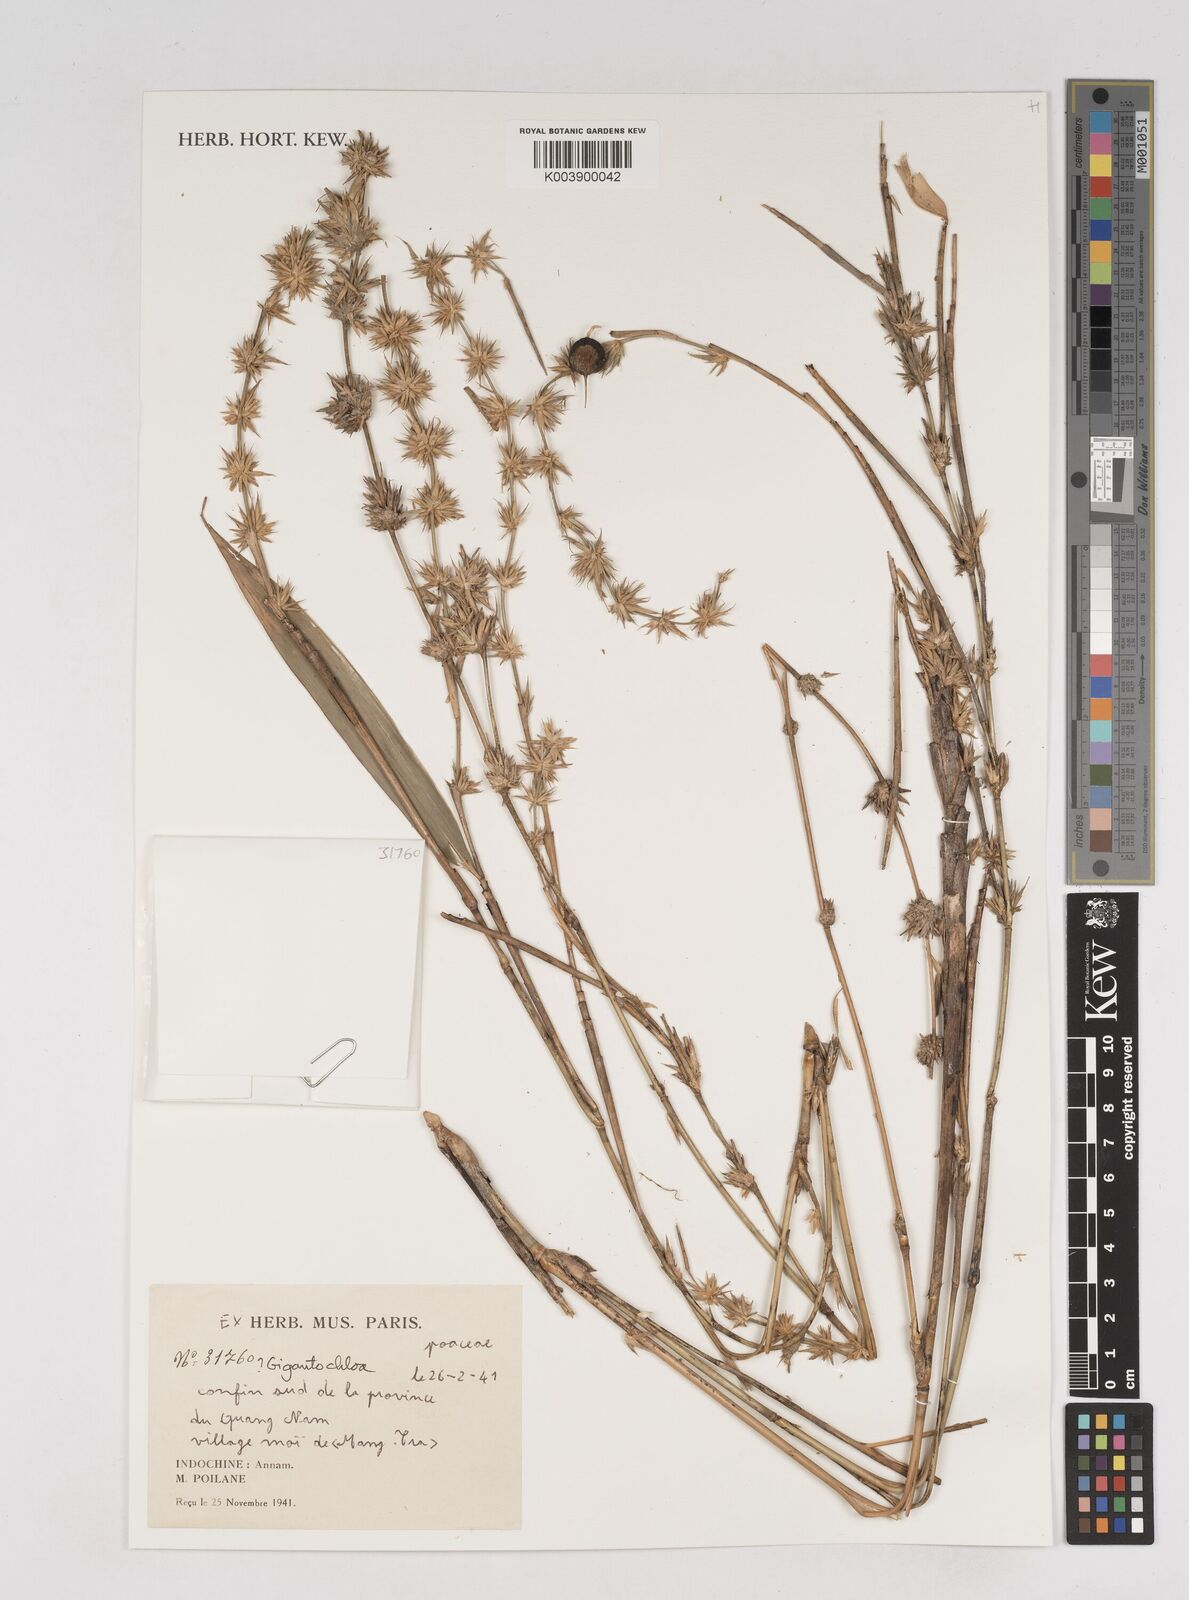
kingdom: Plantae
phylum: Tracheophyta
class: Liliopsida
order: Poales
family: Poaceae
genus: Gigantochloa
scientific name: Gigantochloa
